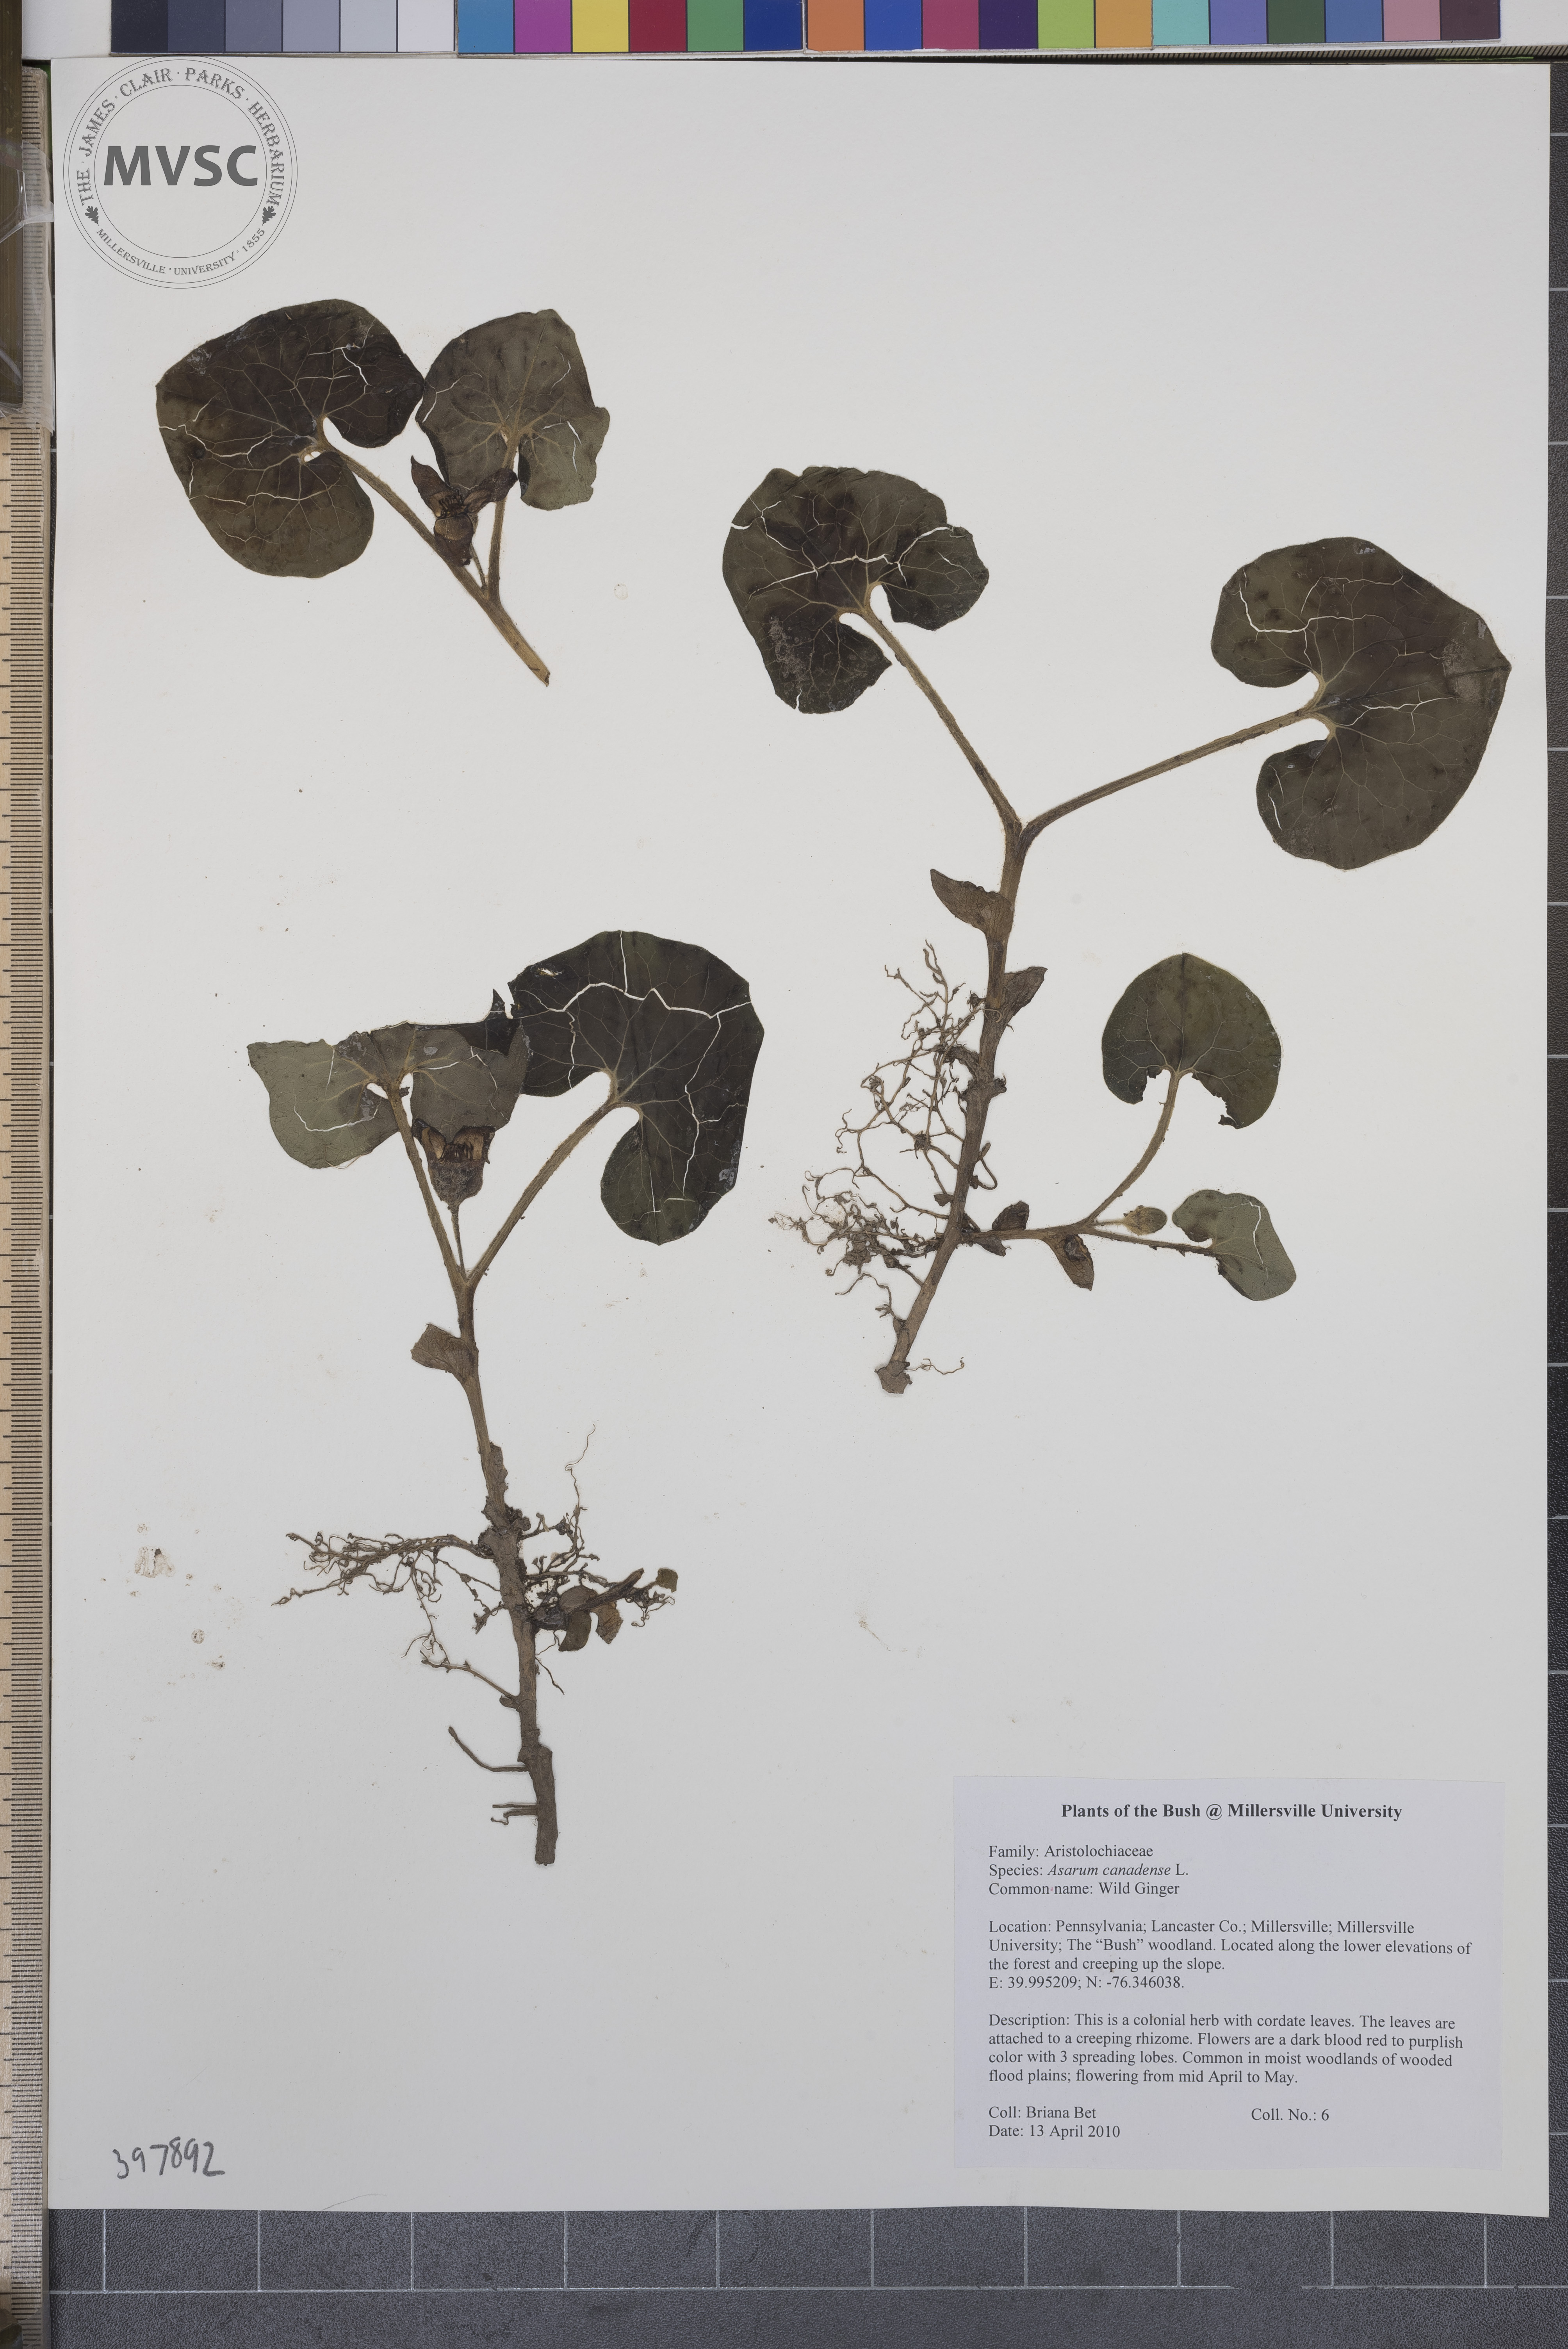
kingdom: Plantae
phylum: Tracheophyta
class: Magnoliopsida
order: Piperales
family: Aristolochiaceae
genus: Asarum
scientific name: Asarum canadense
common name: Wild ginger
